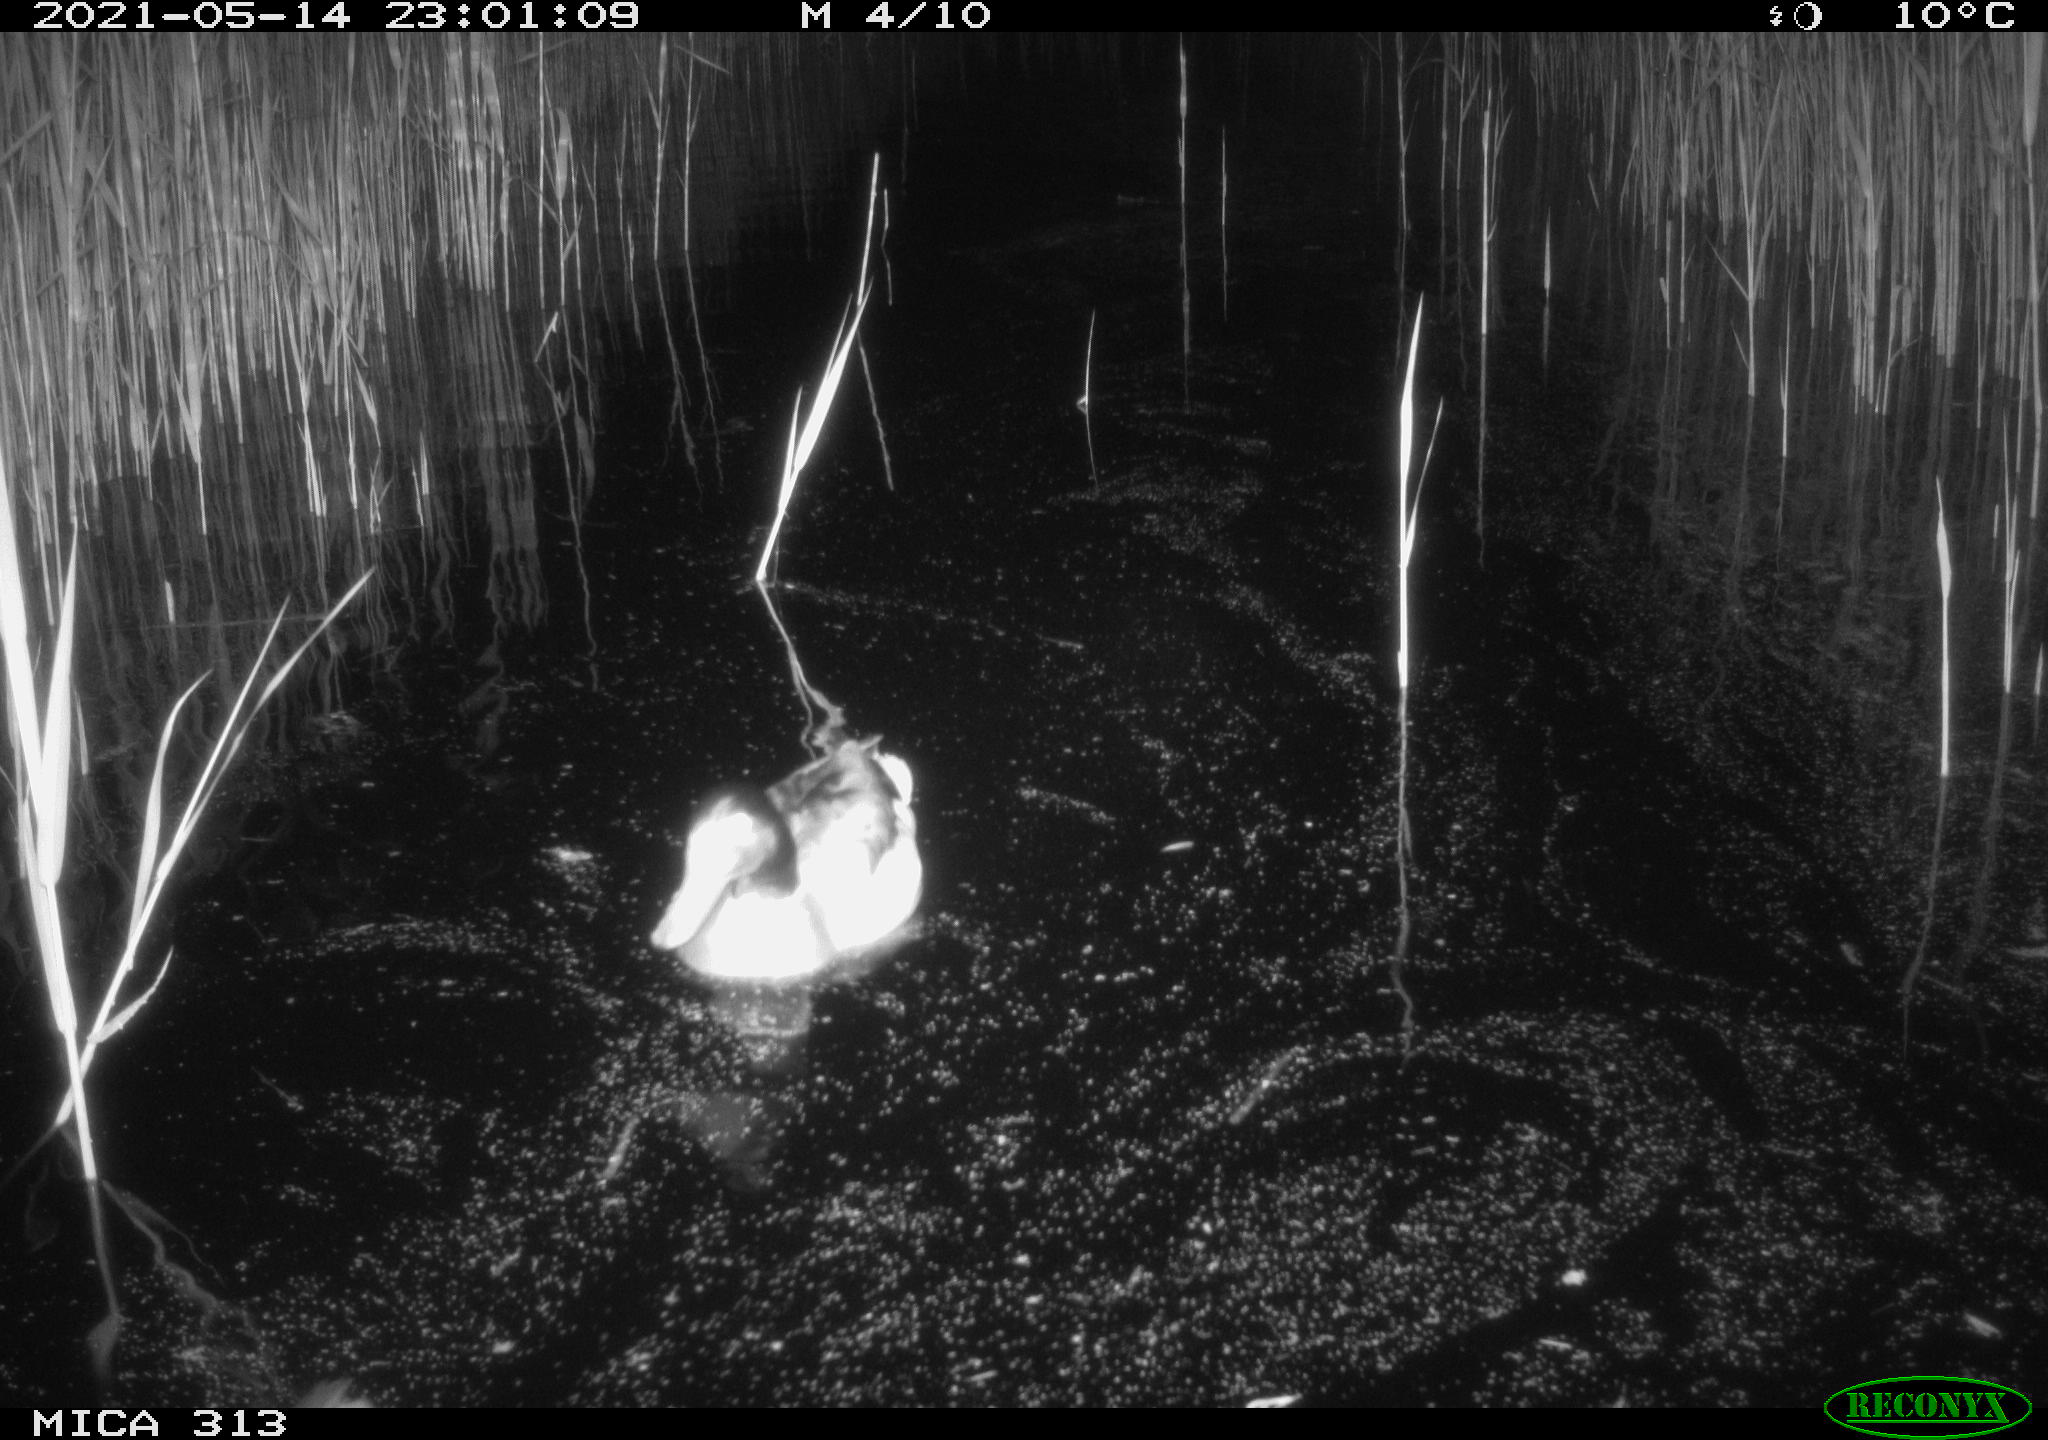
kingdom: Animalia
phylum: Chordata
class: Aves
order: Anseriformes
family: Anatidae
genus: Anas
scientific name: Anas platyrhynchos
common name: Mallard
